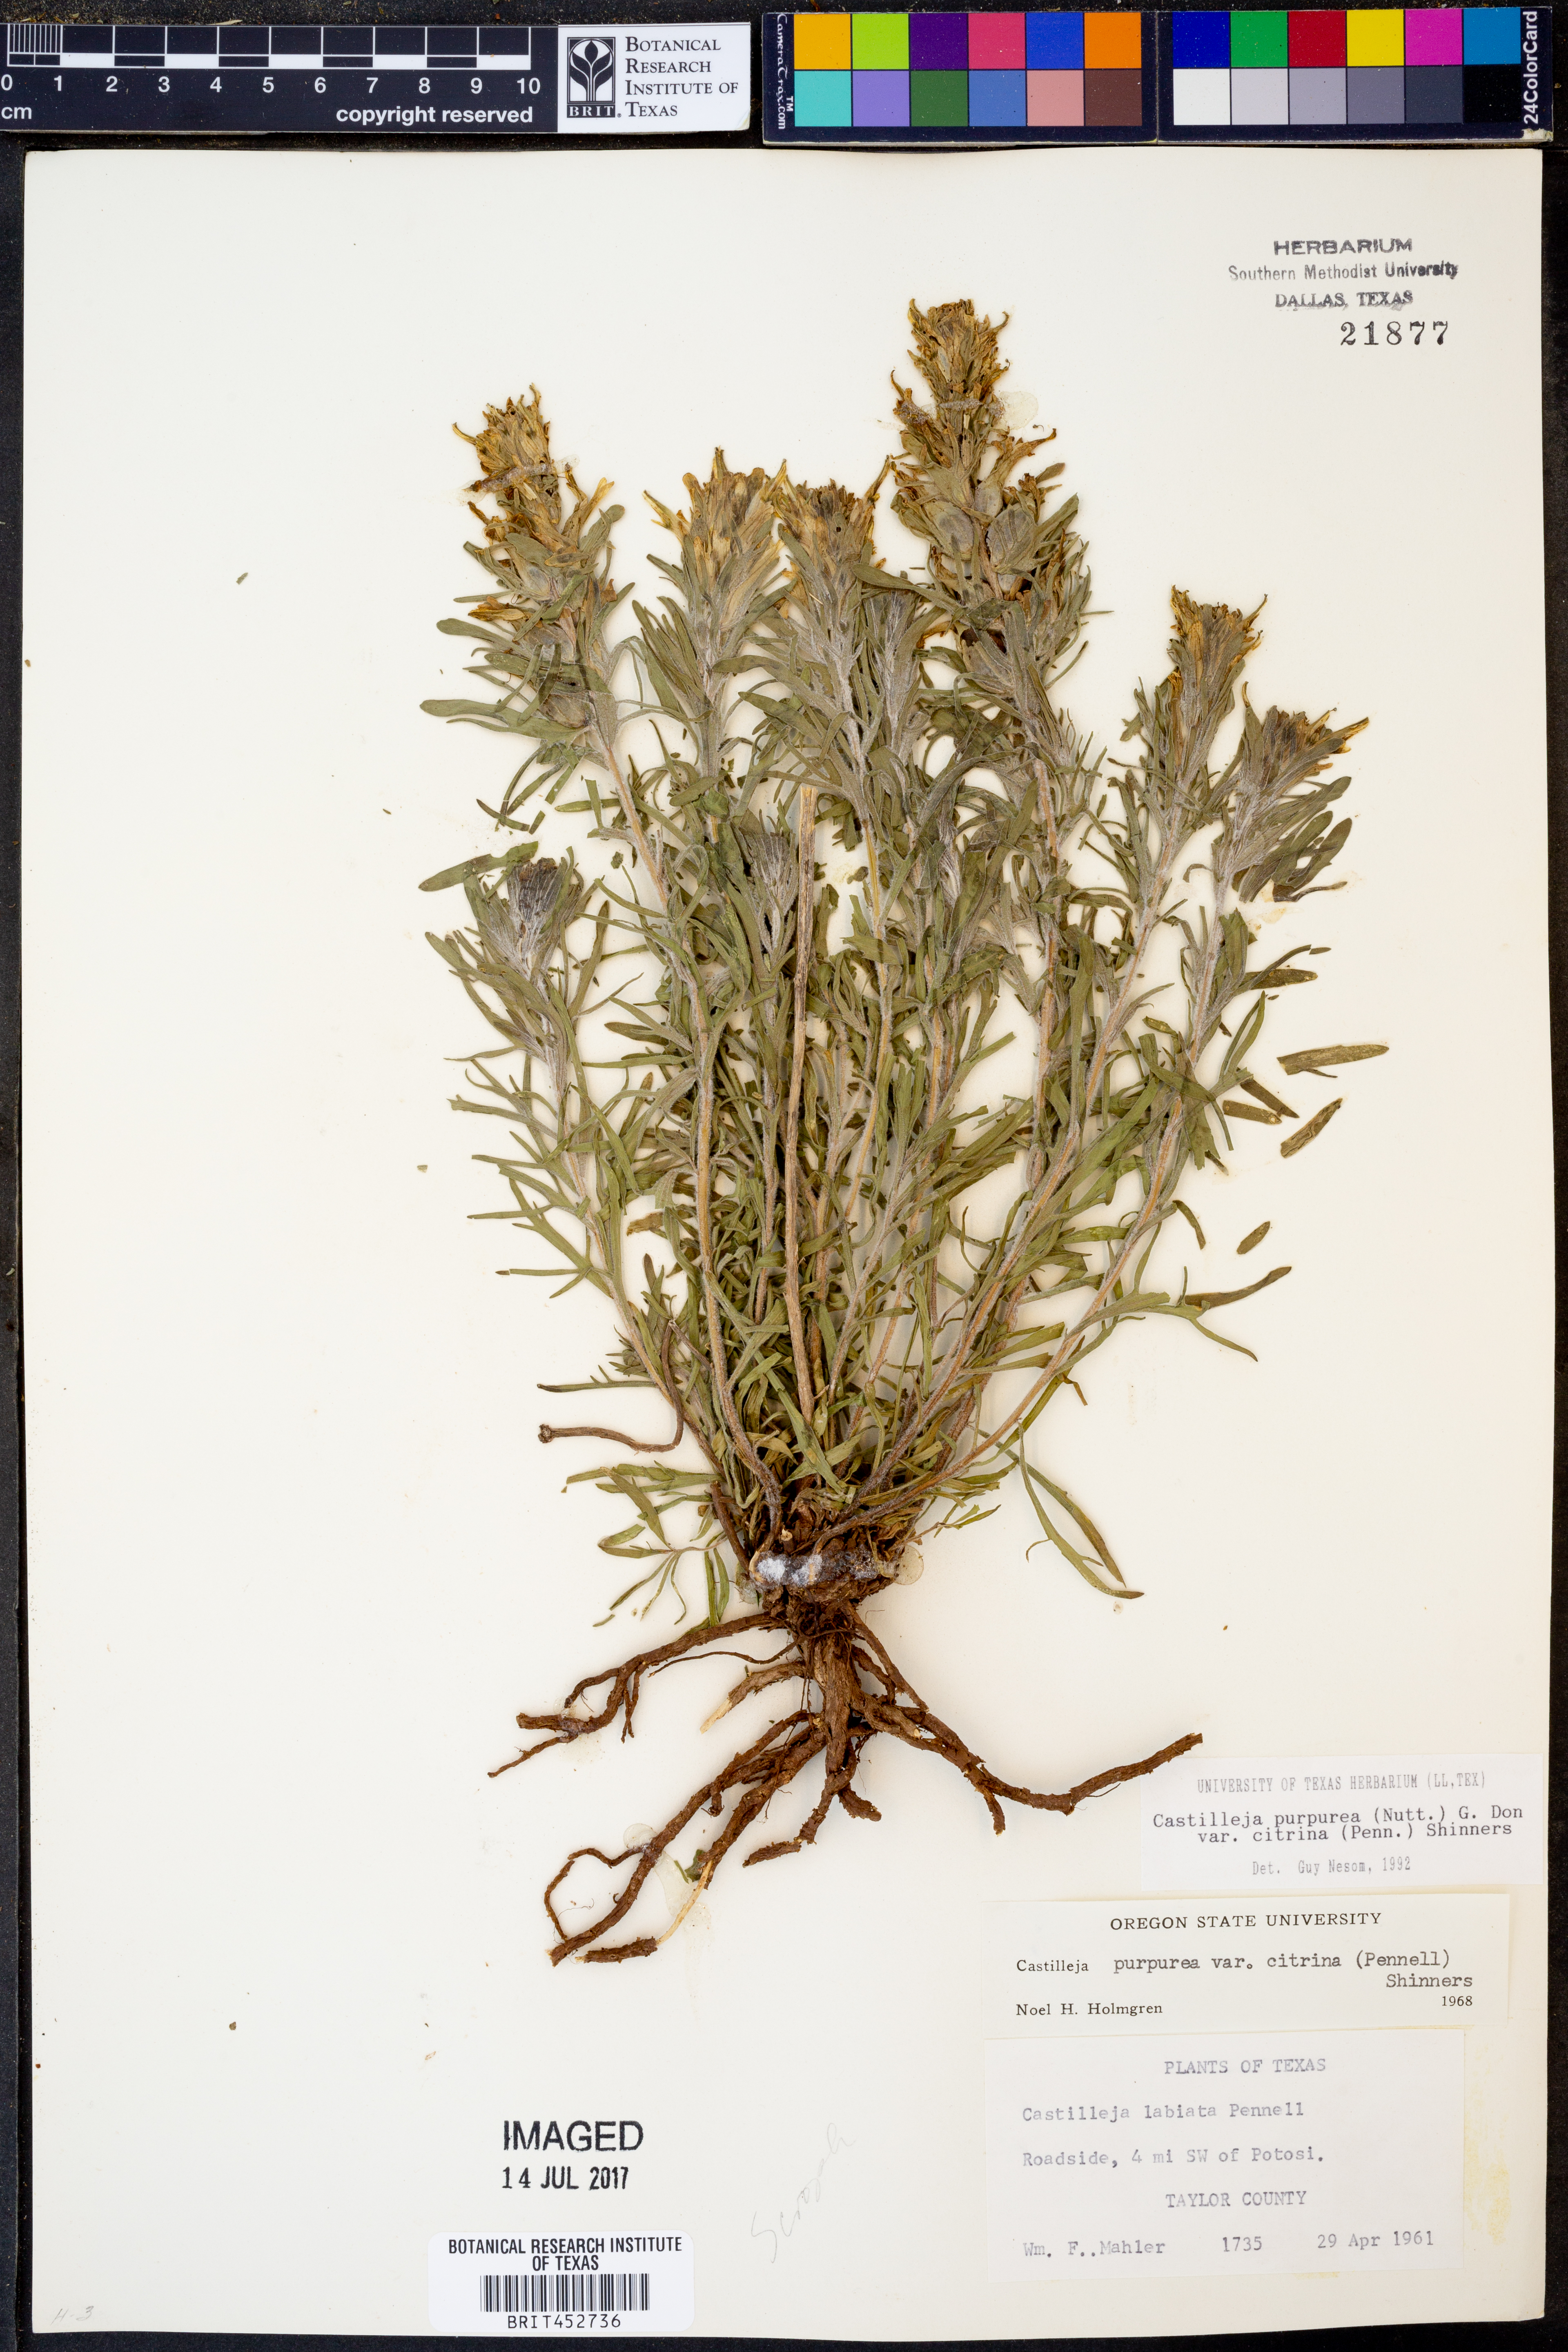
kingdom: Plantae
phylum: Tracheophyta
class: Magnoliopsida
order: Lamiales
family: Orobanchaceae
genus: Castilleja
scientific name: Castilleja citrina
